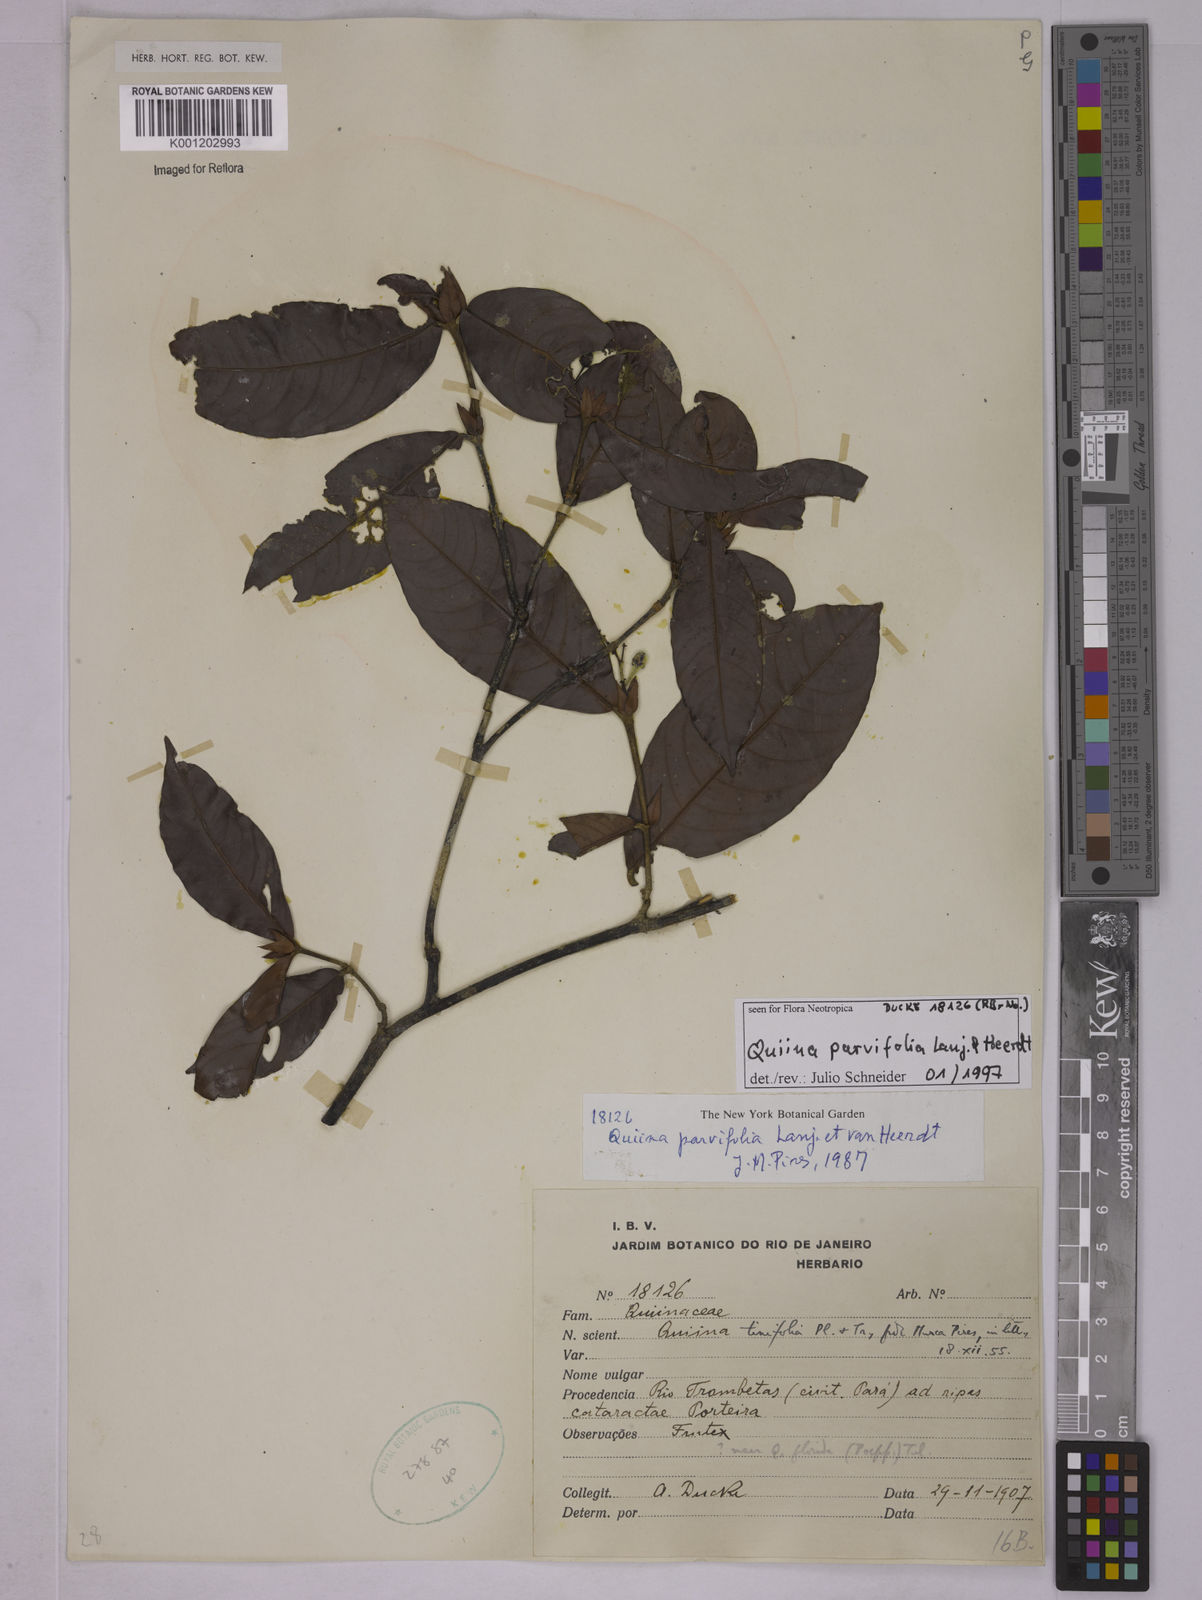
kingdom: Plantae
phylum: Tracheophyta
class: Magnoliopsida
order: Malpighiales
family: Quiinaceae
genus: Quiina
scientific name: Quiina parvifolia
